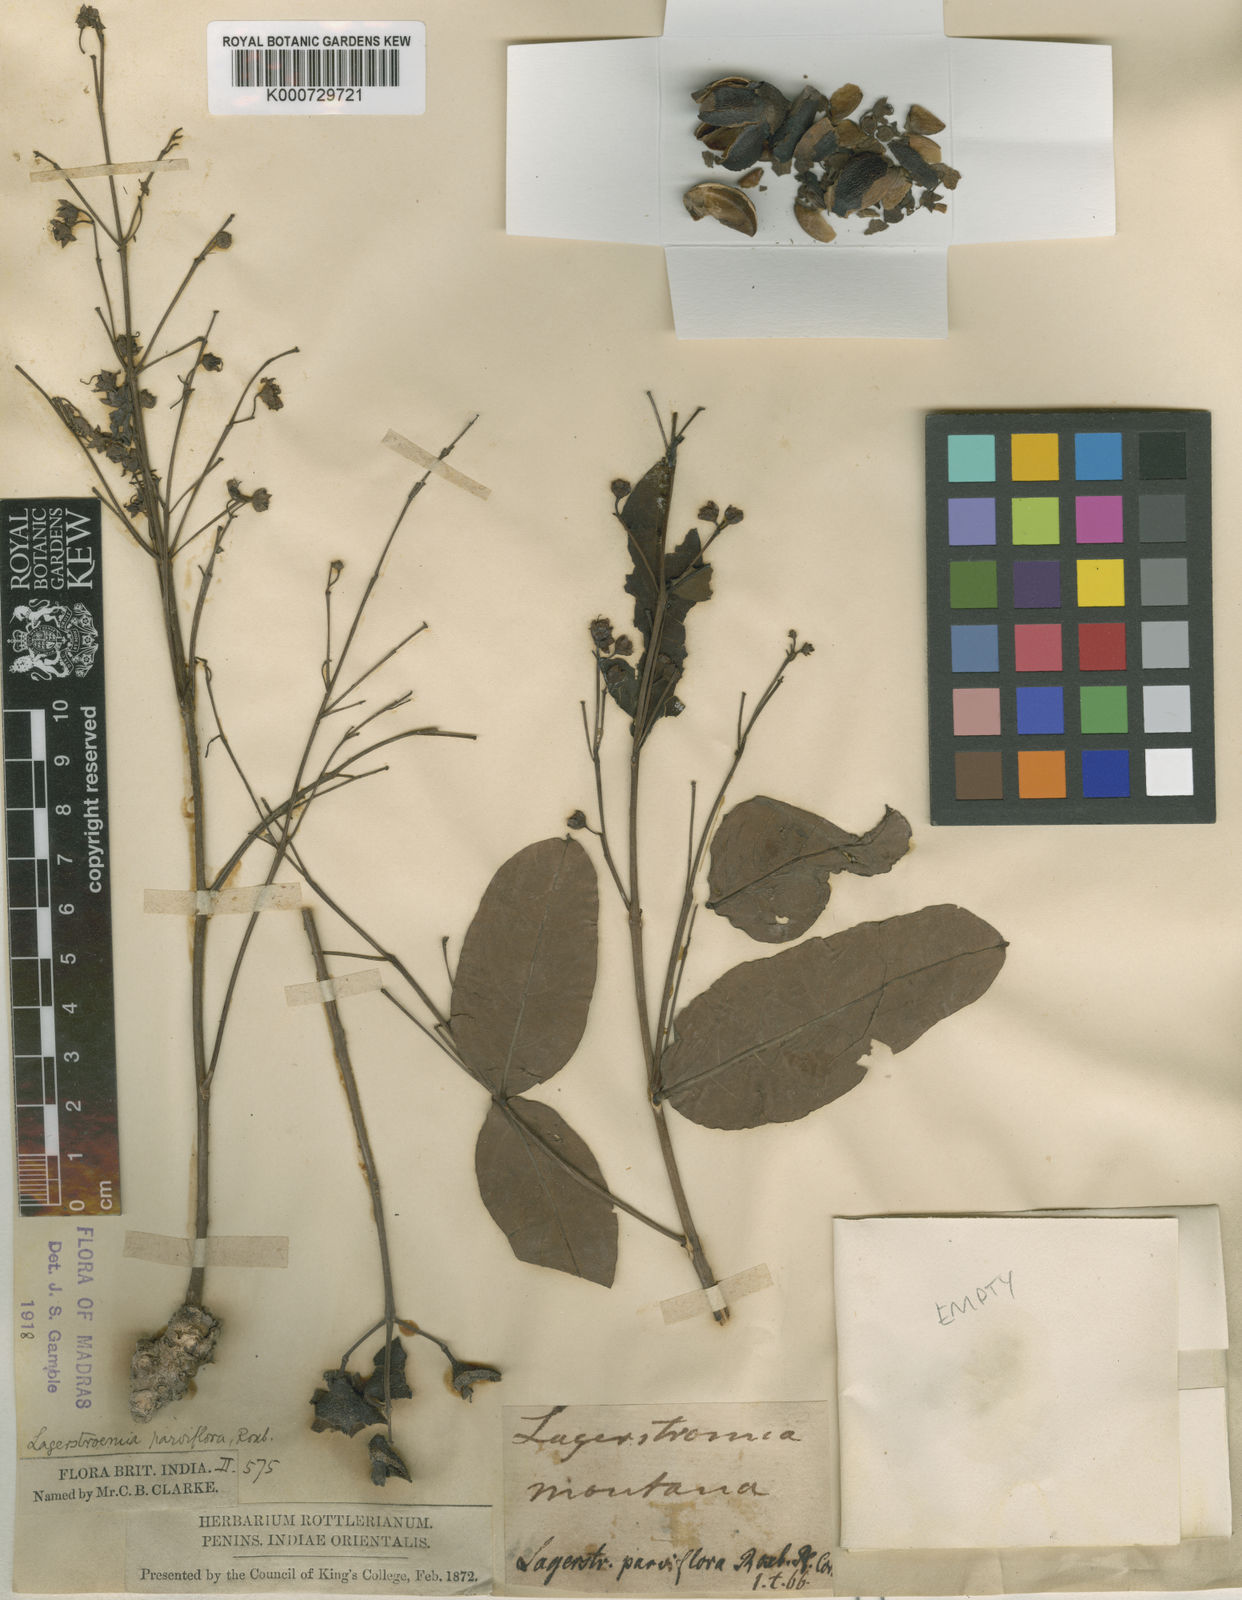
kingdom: Plantae
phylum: Tracheophyta
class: Magnoliopsida
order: Myrtales
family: Lythraceae
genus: Lagerstroemia
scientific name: Lagerstroemia parviflora
